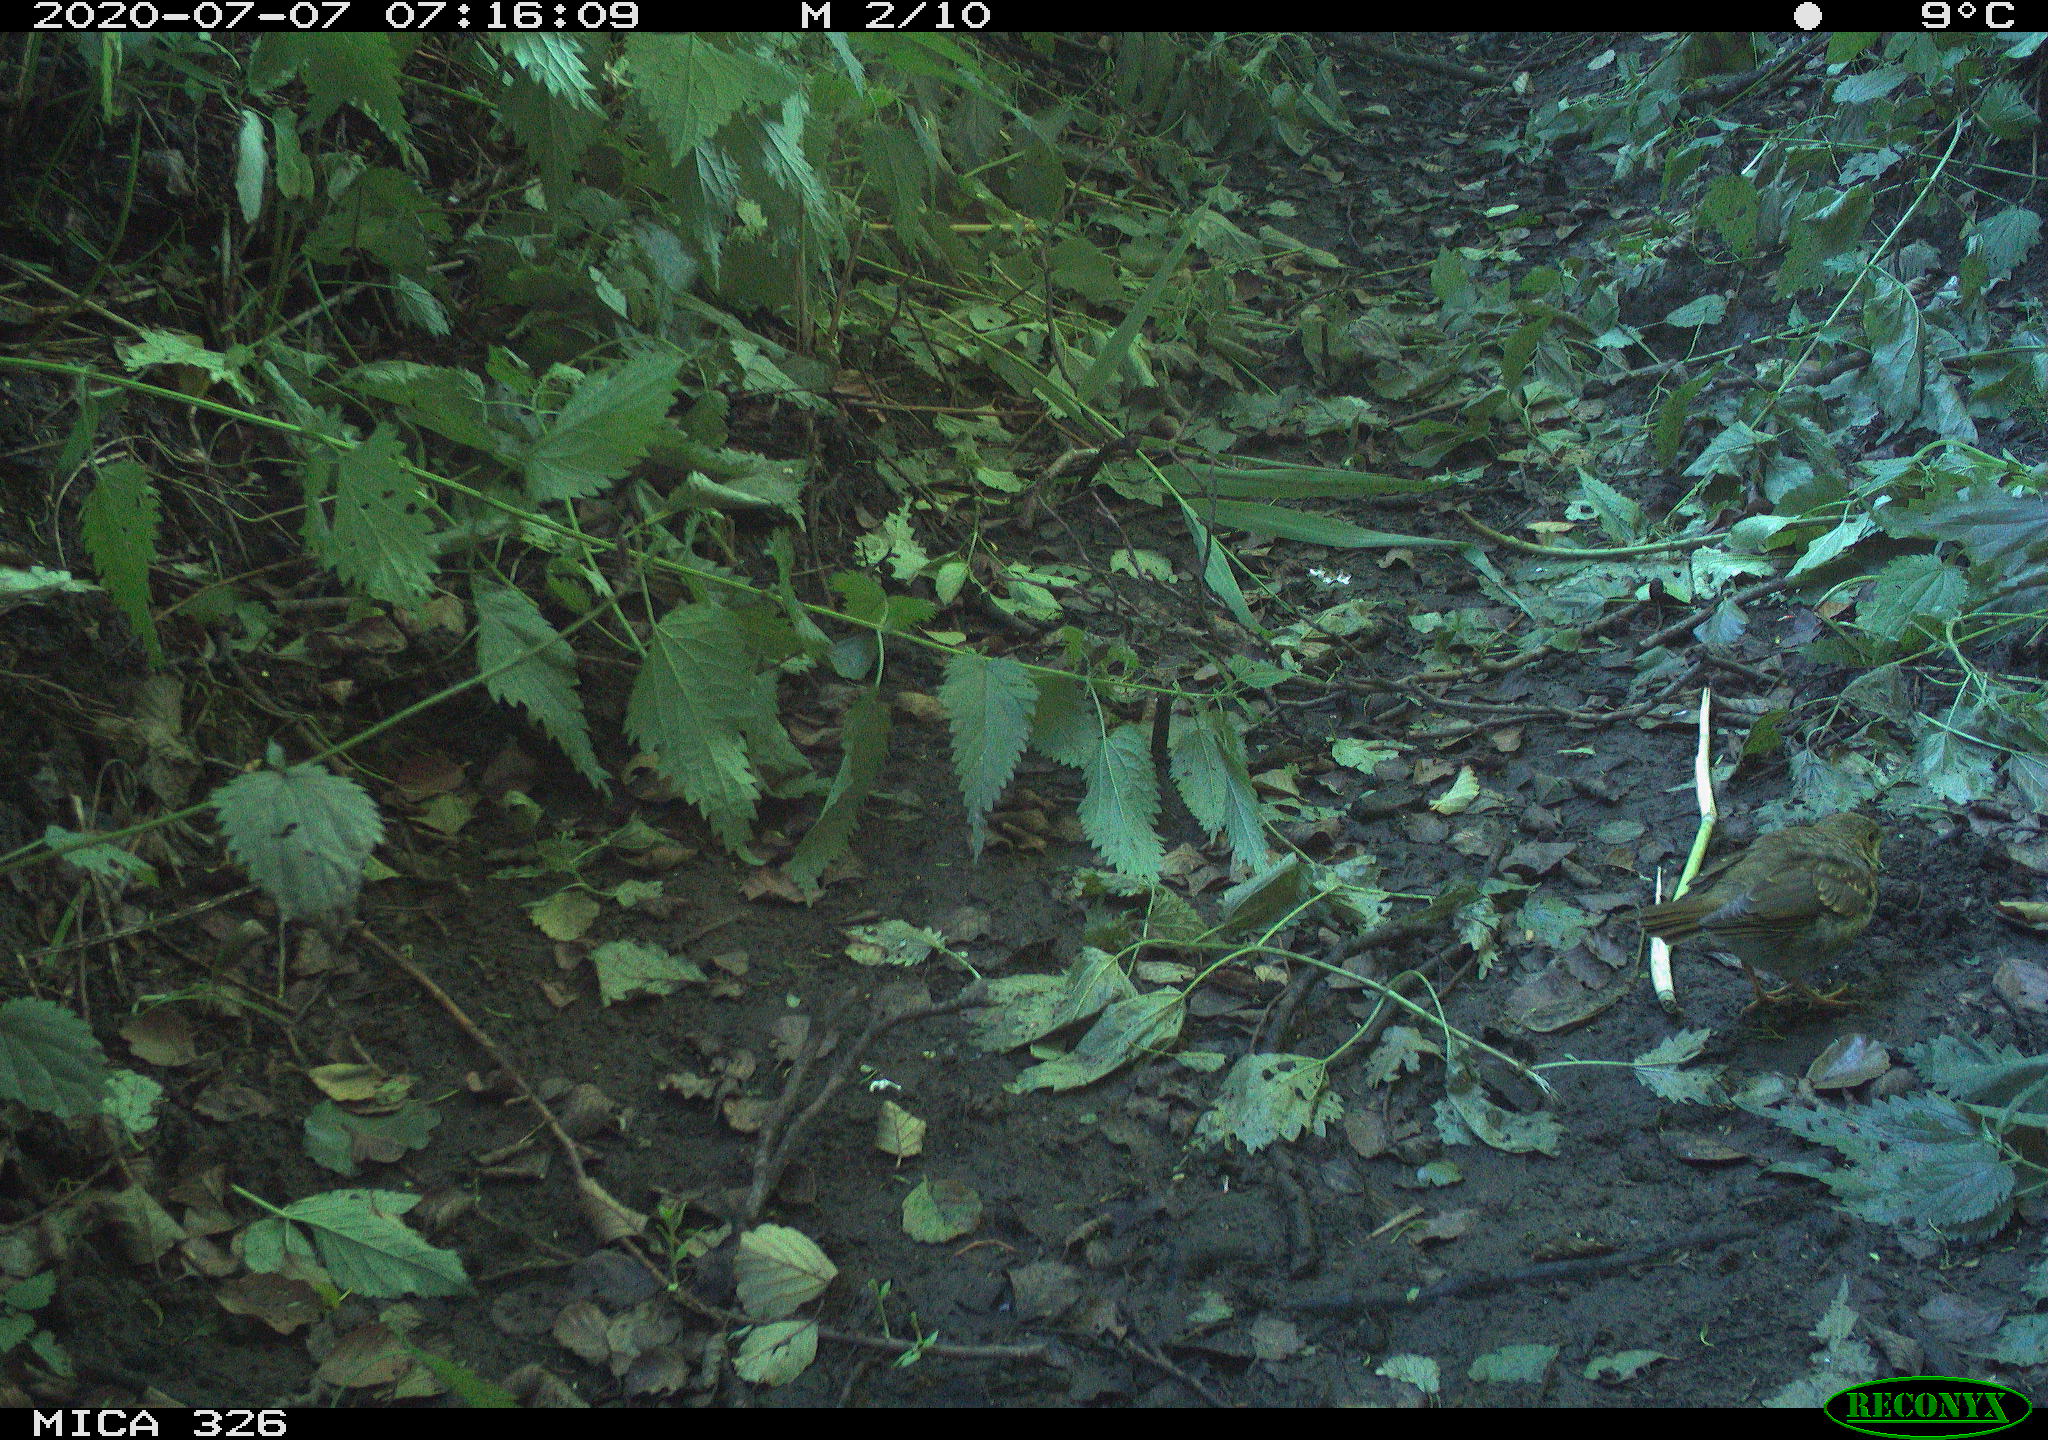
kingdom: Animalia
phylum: Chordata
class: Aves
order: Passeriformes
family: Turdidae
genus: Turdus
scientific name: Turdus philomelos
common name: Song thrush
